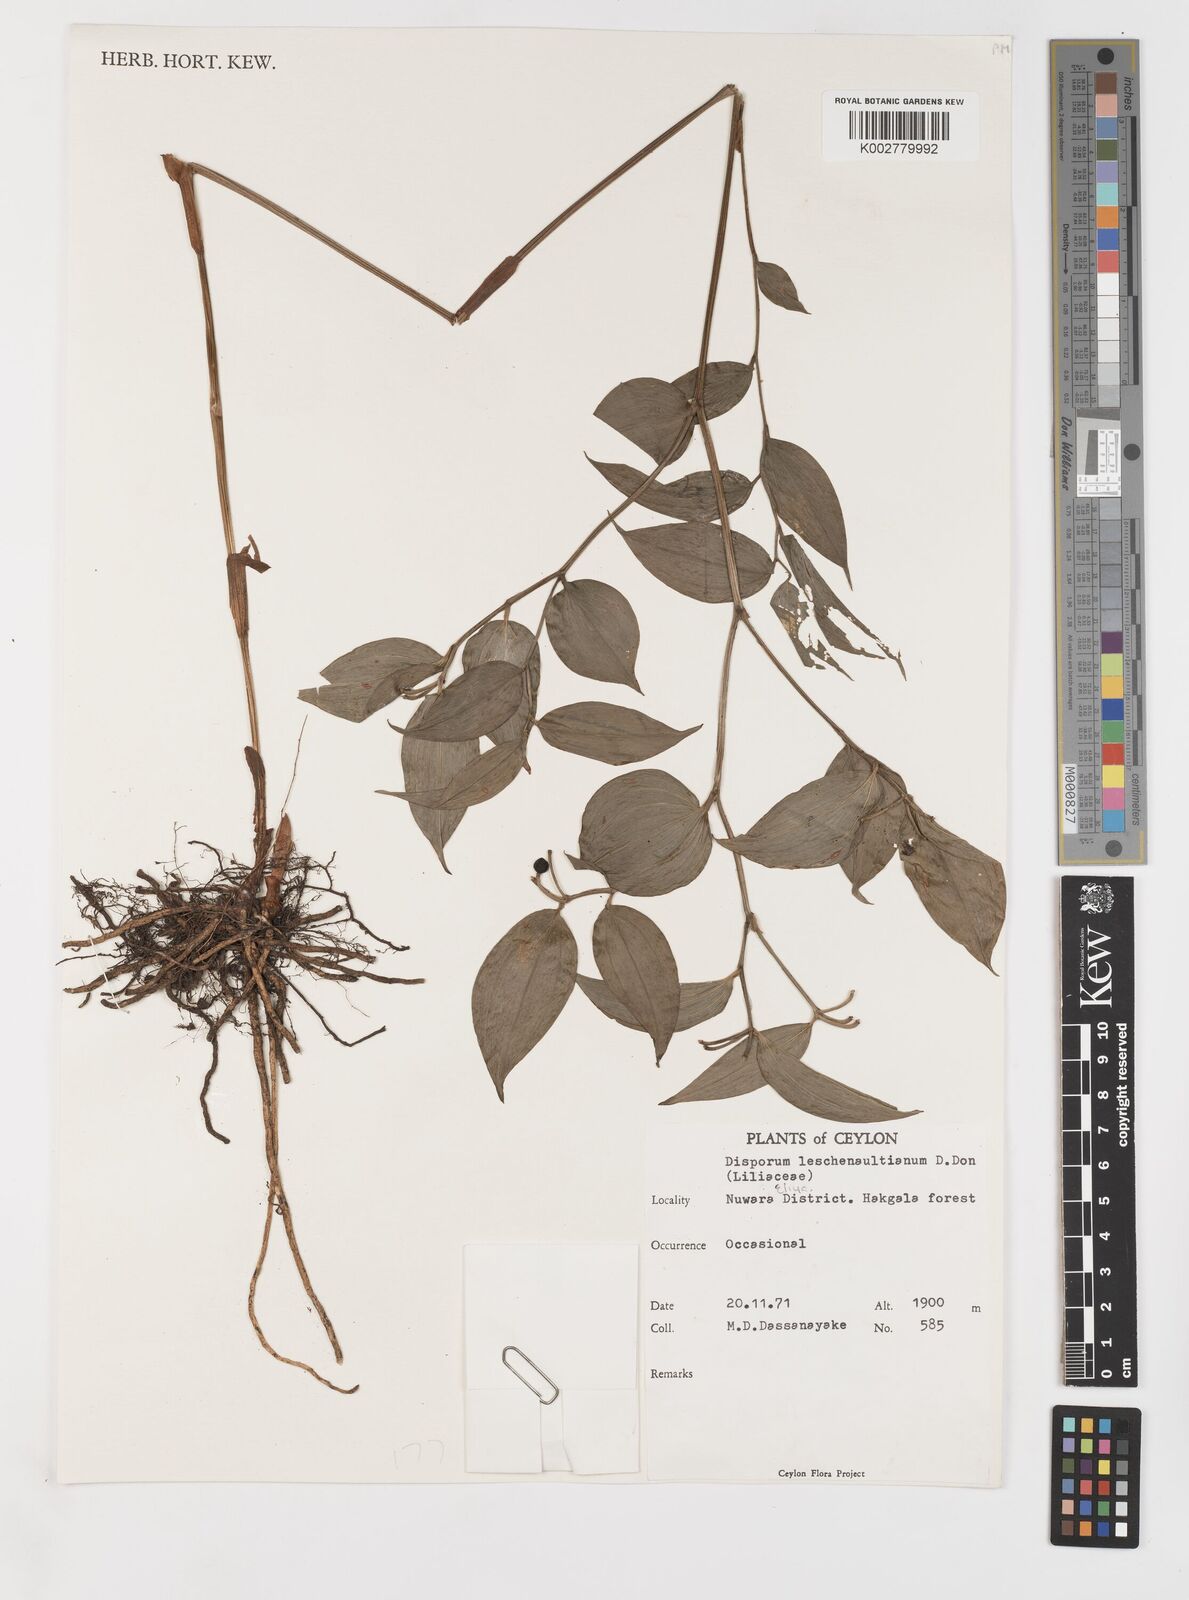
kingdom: Plantae
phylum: Tracheophyta
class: Liliopsida
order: Liliales
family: Colchicaceae
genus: Disporum
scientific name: Disporum cantoniense
